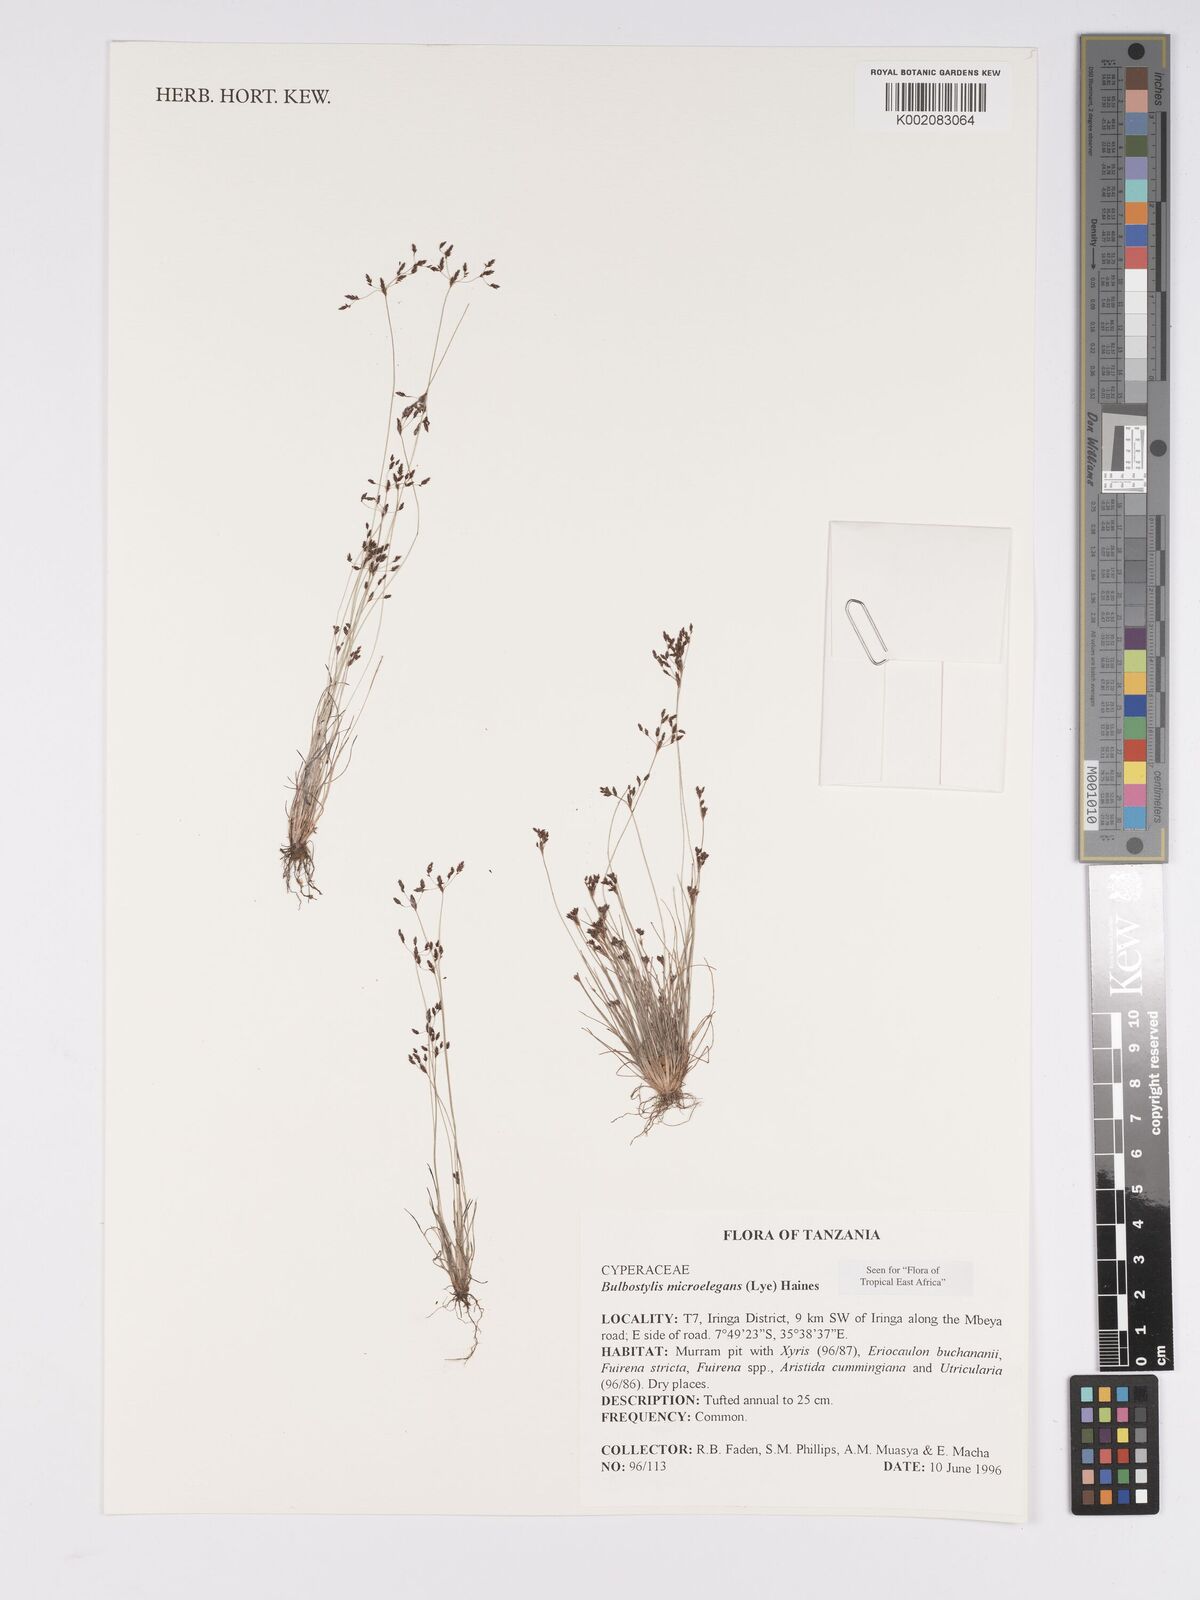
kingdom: Plantae
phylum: Tracheophyta
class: Liliopsida
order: Poales
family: Cyperaceae
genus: Bulbostylis
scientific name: Bulbostylis microelegans
